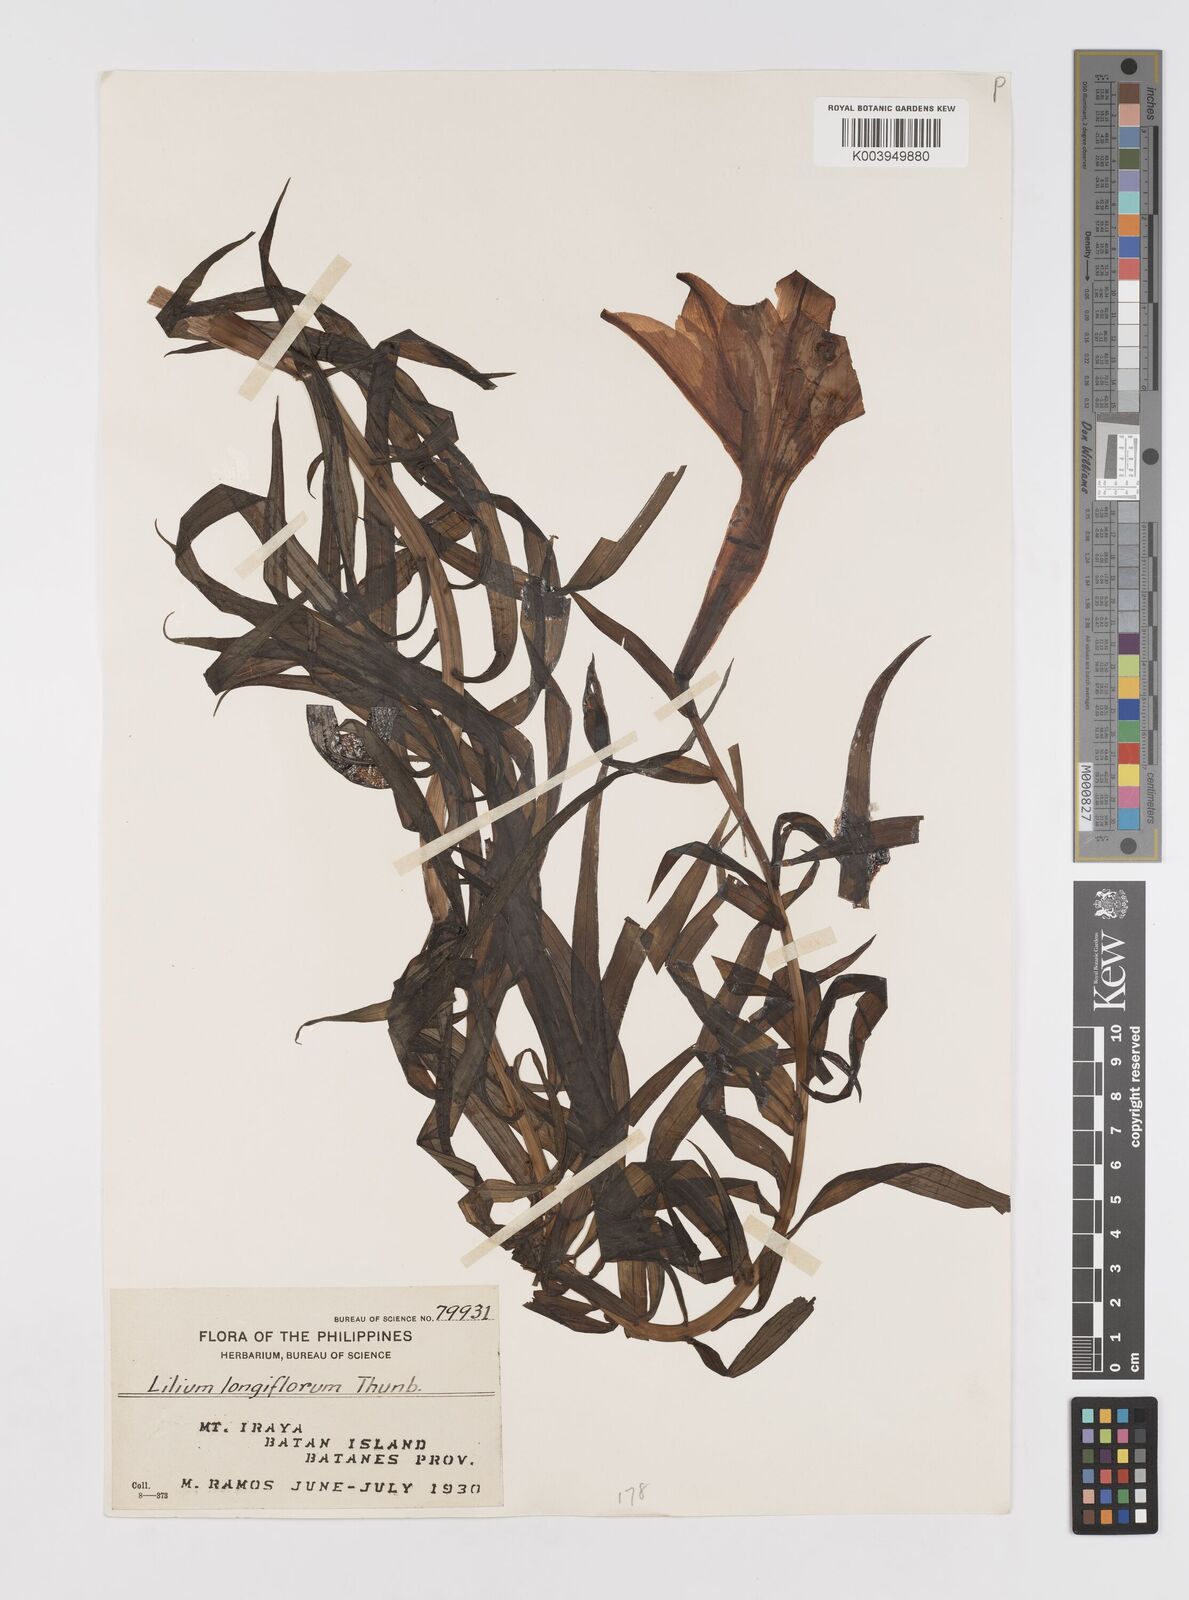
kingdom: Plantae
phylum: Tracheophyta
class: Liliopsida
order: Liliales
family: Liliaceae
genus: Lilium
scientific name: Lilium longiflorum
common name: Easter lily
